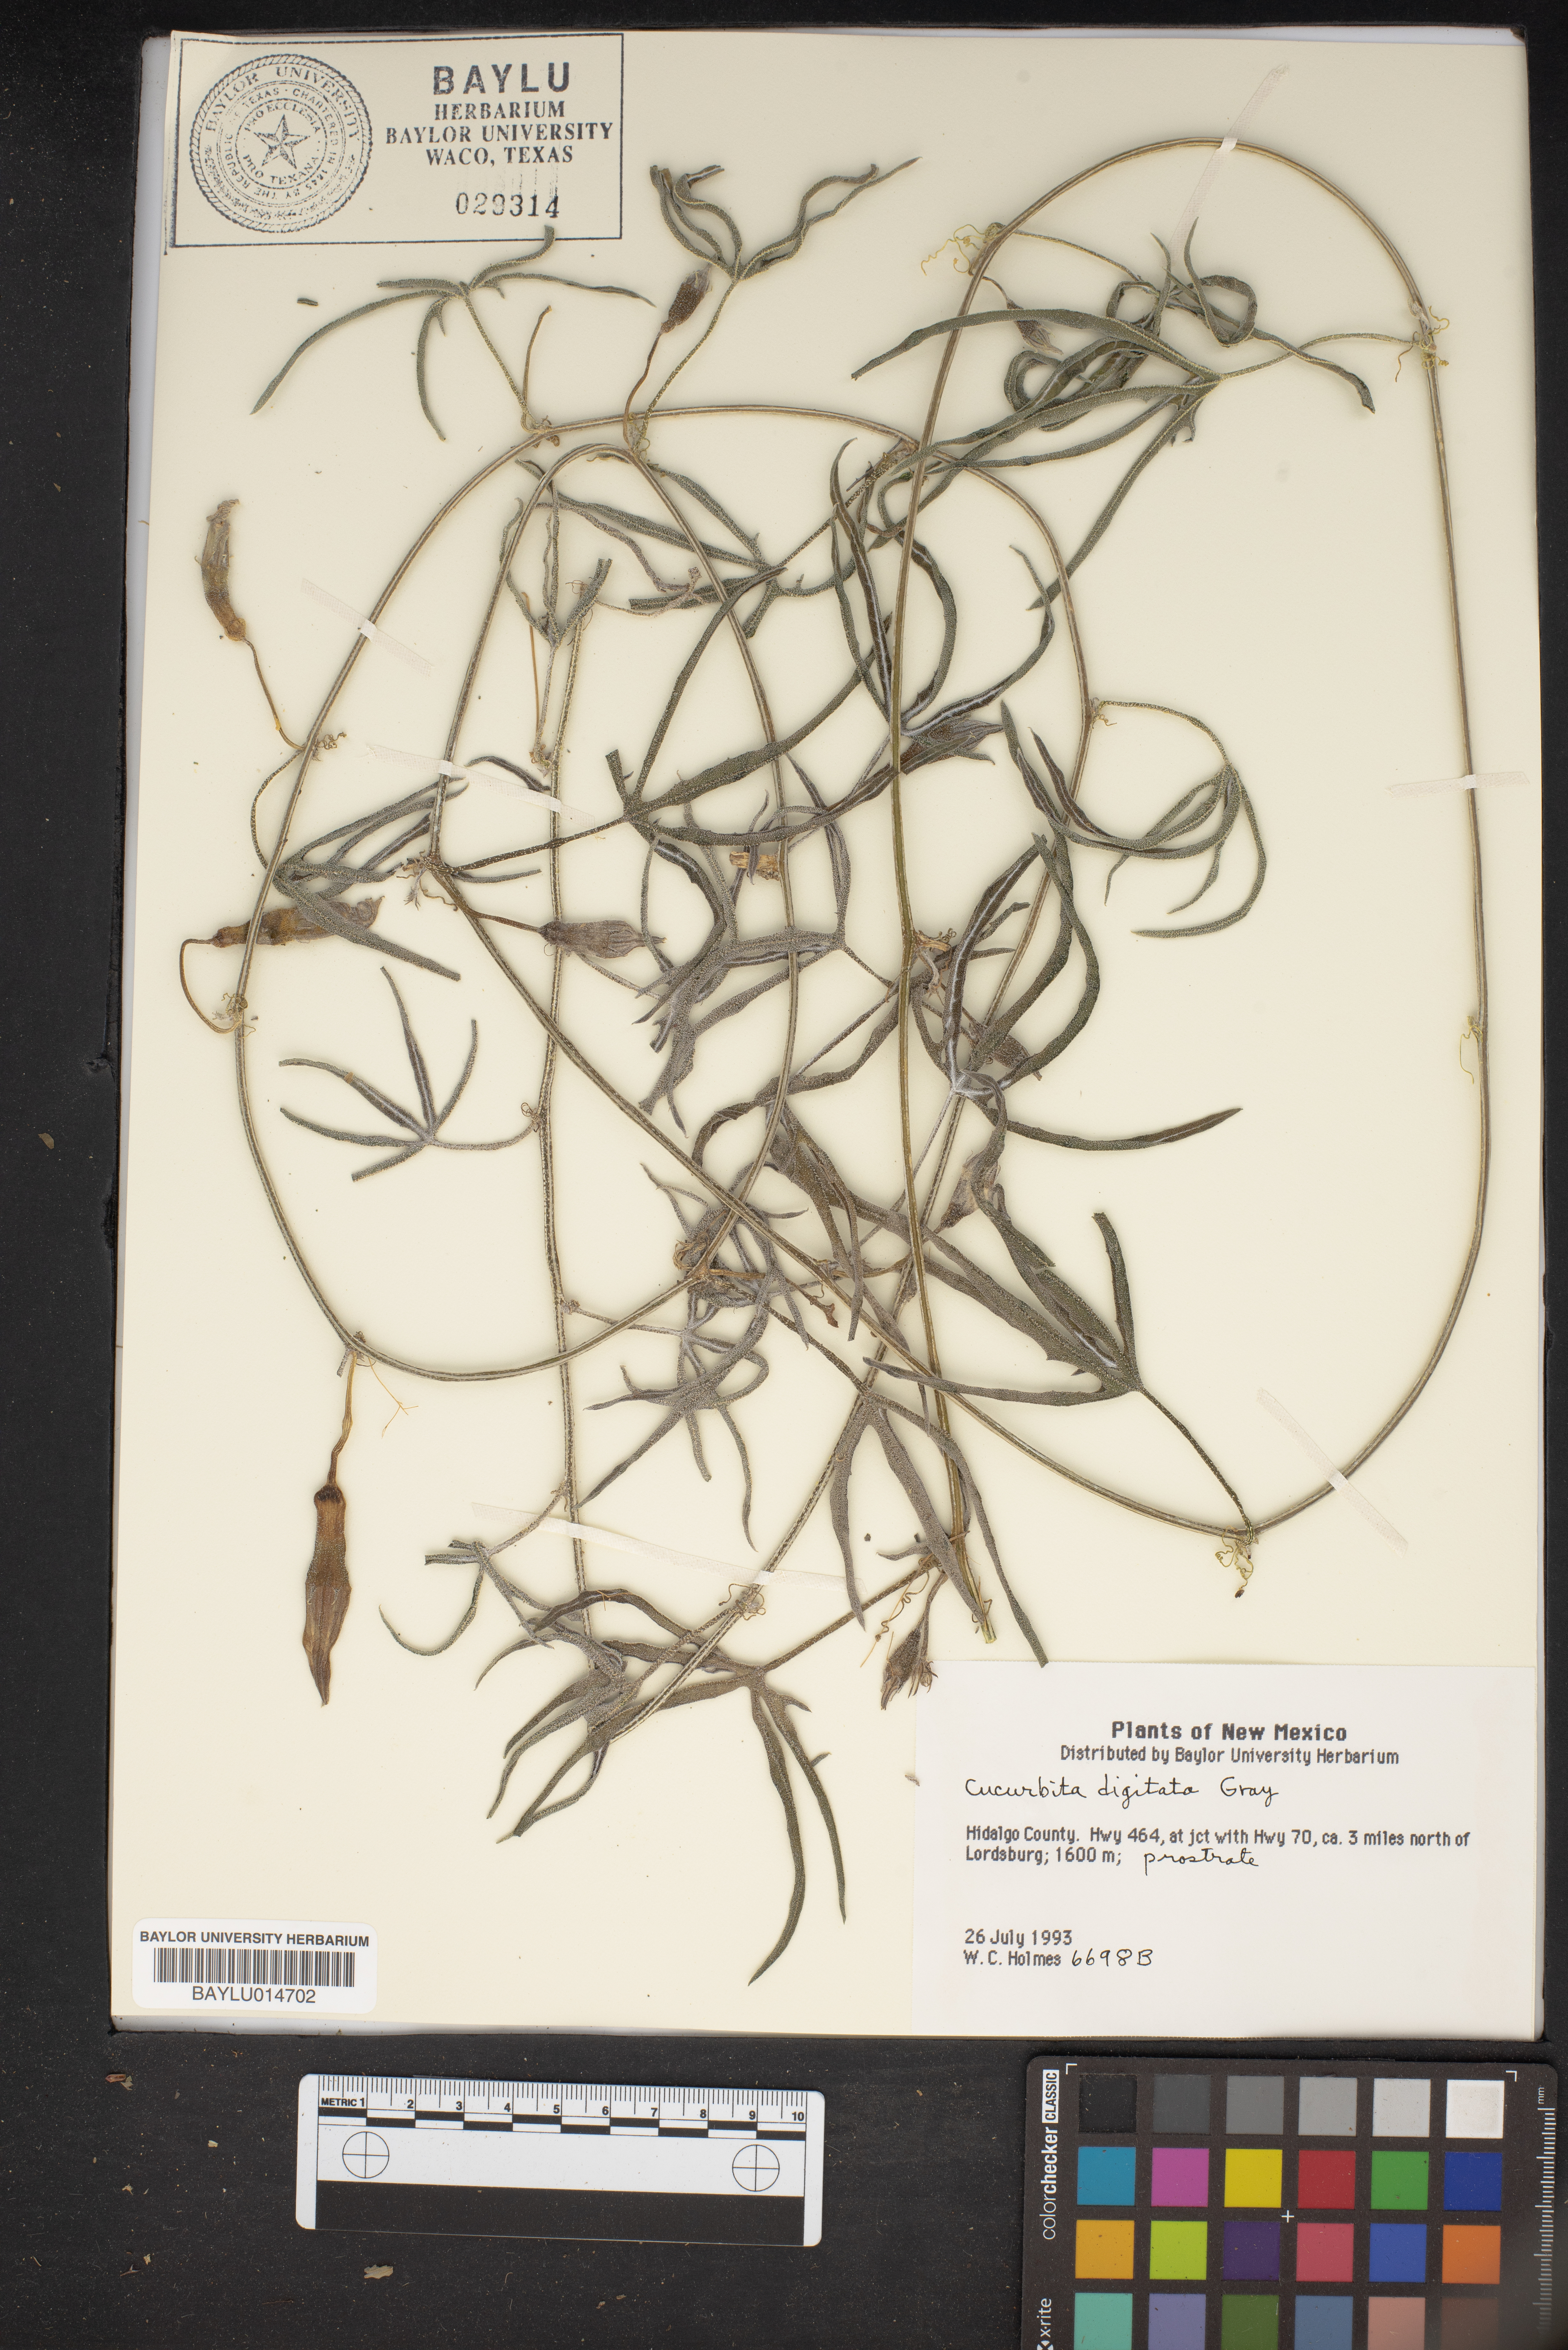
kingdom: Plantae
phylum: Tracheophyta
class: Magnoliopsida
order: Cucurbitales
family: Cucurbitaceae
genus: Cucurbita
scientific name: Cucurbita digitata
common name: Finger-leaf gourd
